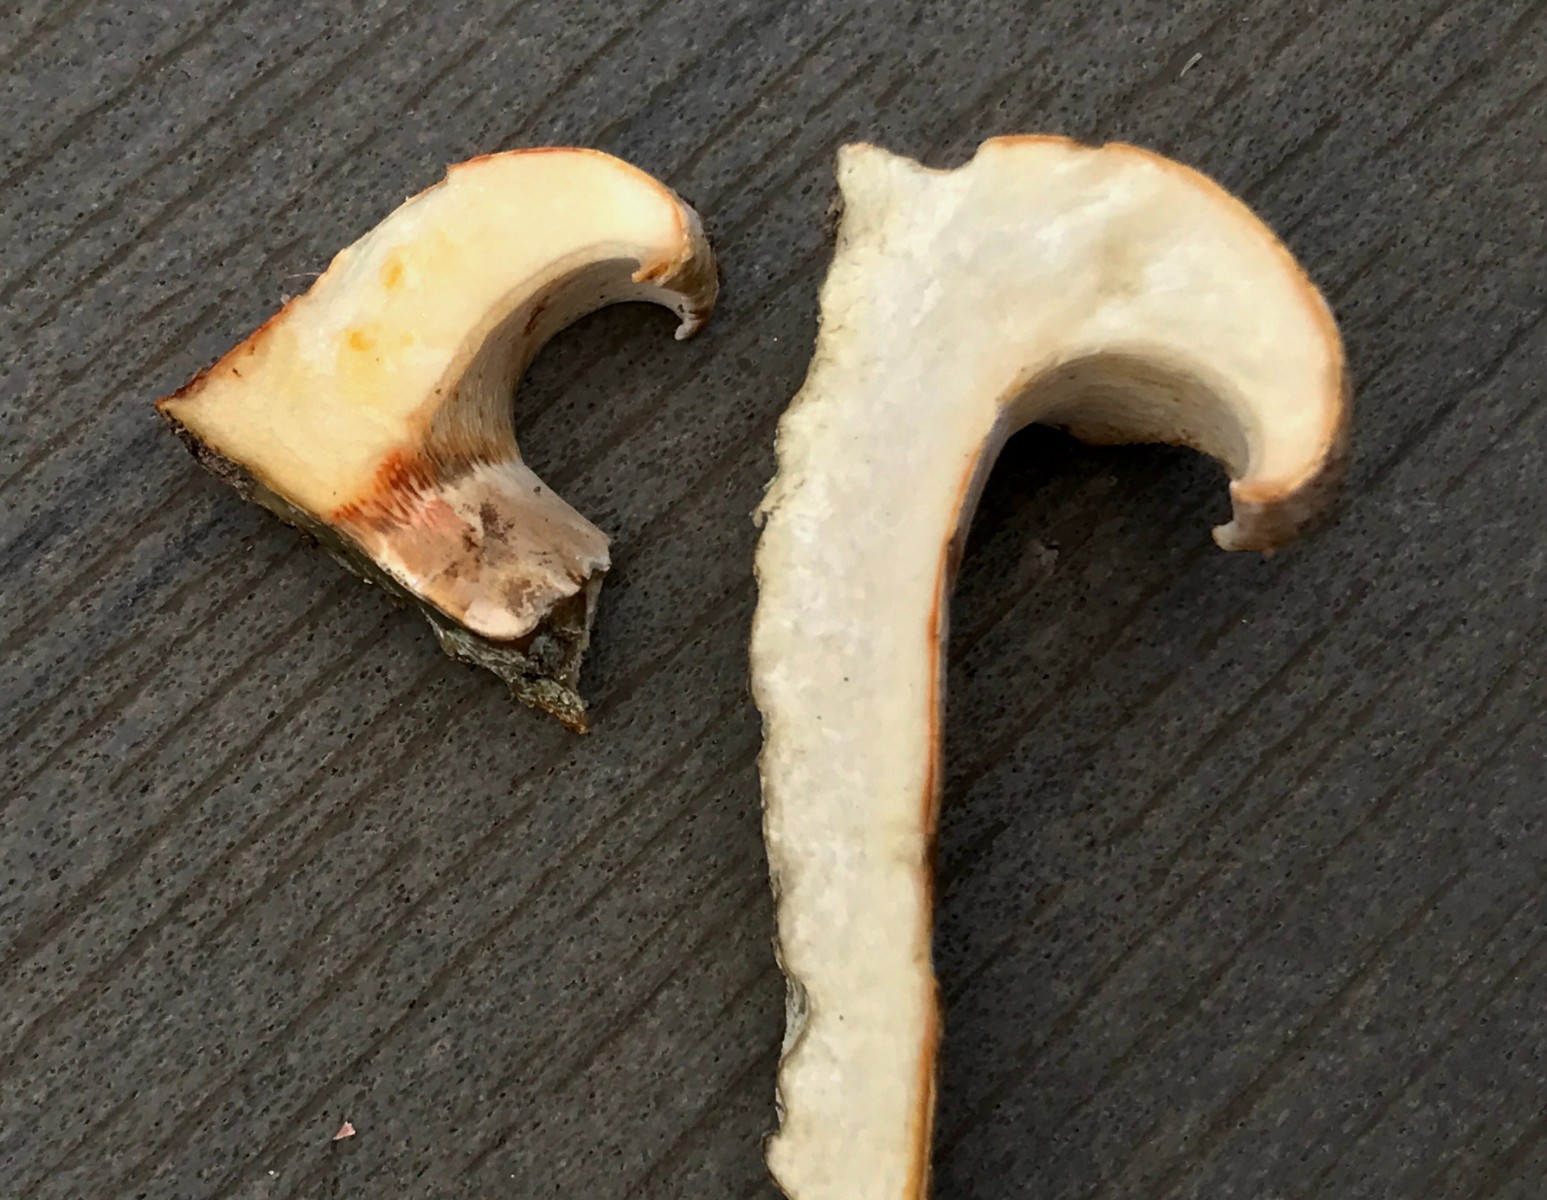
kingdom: Fungi
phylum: Basidiomycota
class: Agaricomycetes
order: Russulales
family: Russulaceae
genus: Lactifluus
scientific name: Lactifluus
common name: mælkehat
